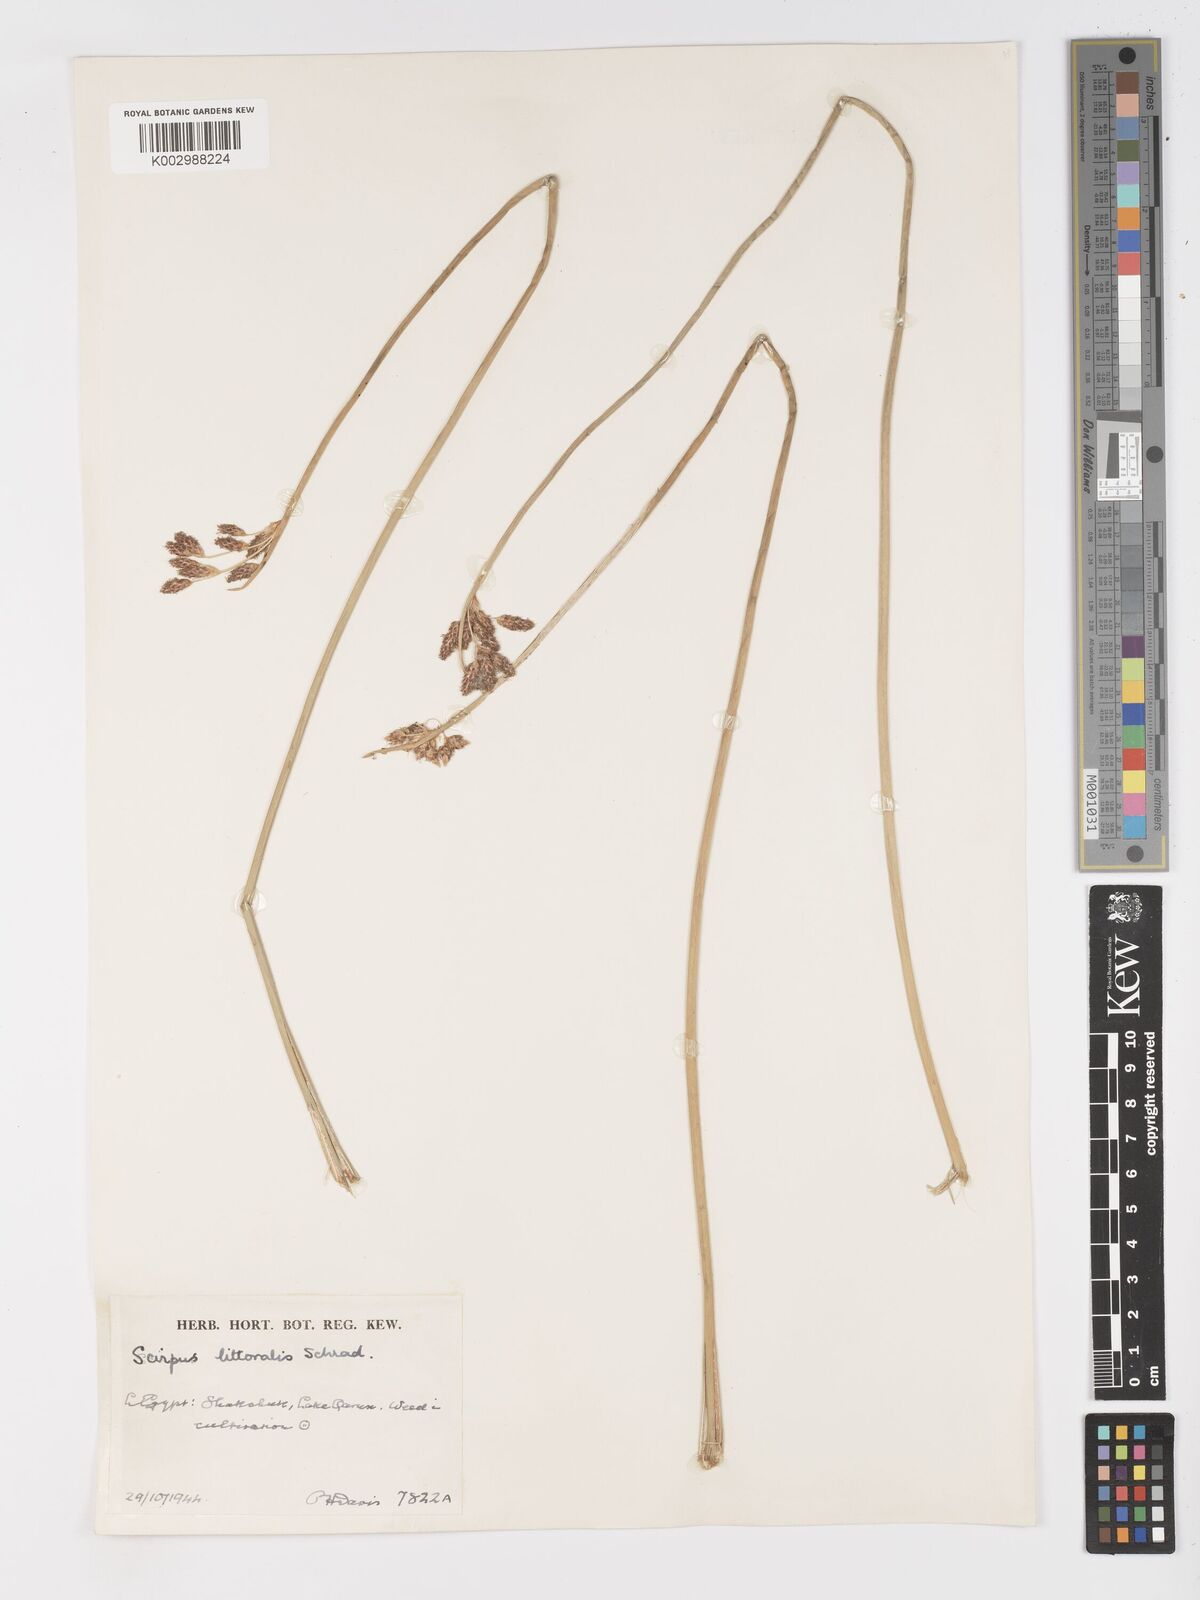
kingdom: Plantae
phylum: Tracheophyta
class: Liliopsida
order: Poales
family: Cyperaceae
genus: Schoenoplectus
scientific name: Schoenoplectus litoralis
